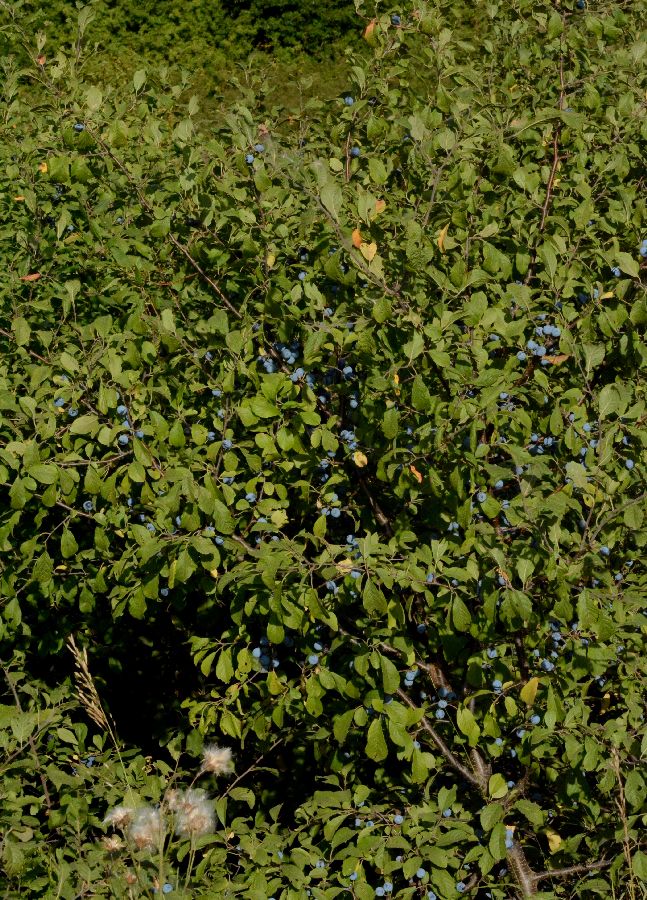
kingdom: Plantae
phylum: Tracheophyta
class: Magnoliopsida
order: Rosales
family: Rosaceae
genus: Prunus
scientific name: Prunus spinosa
